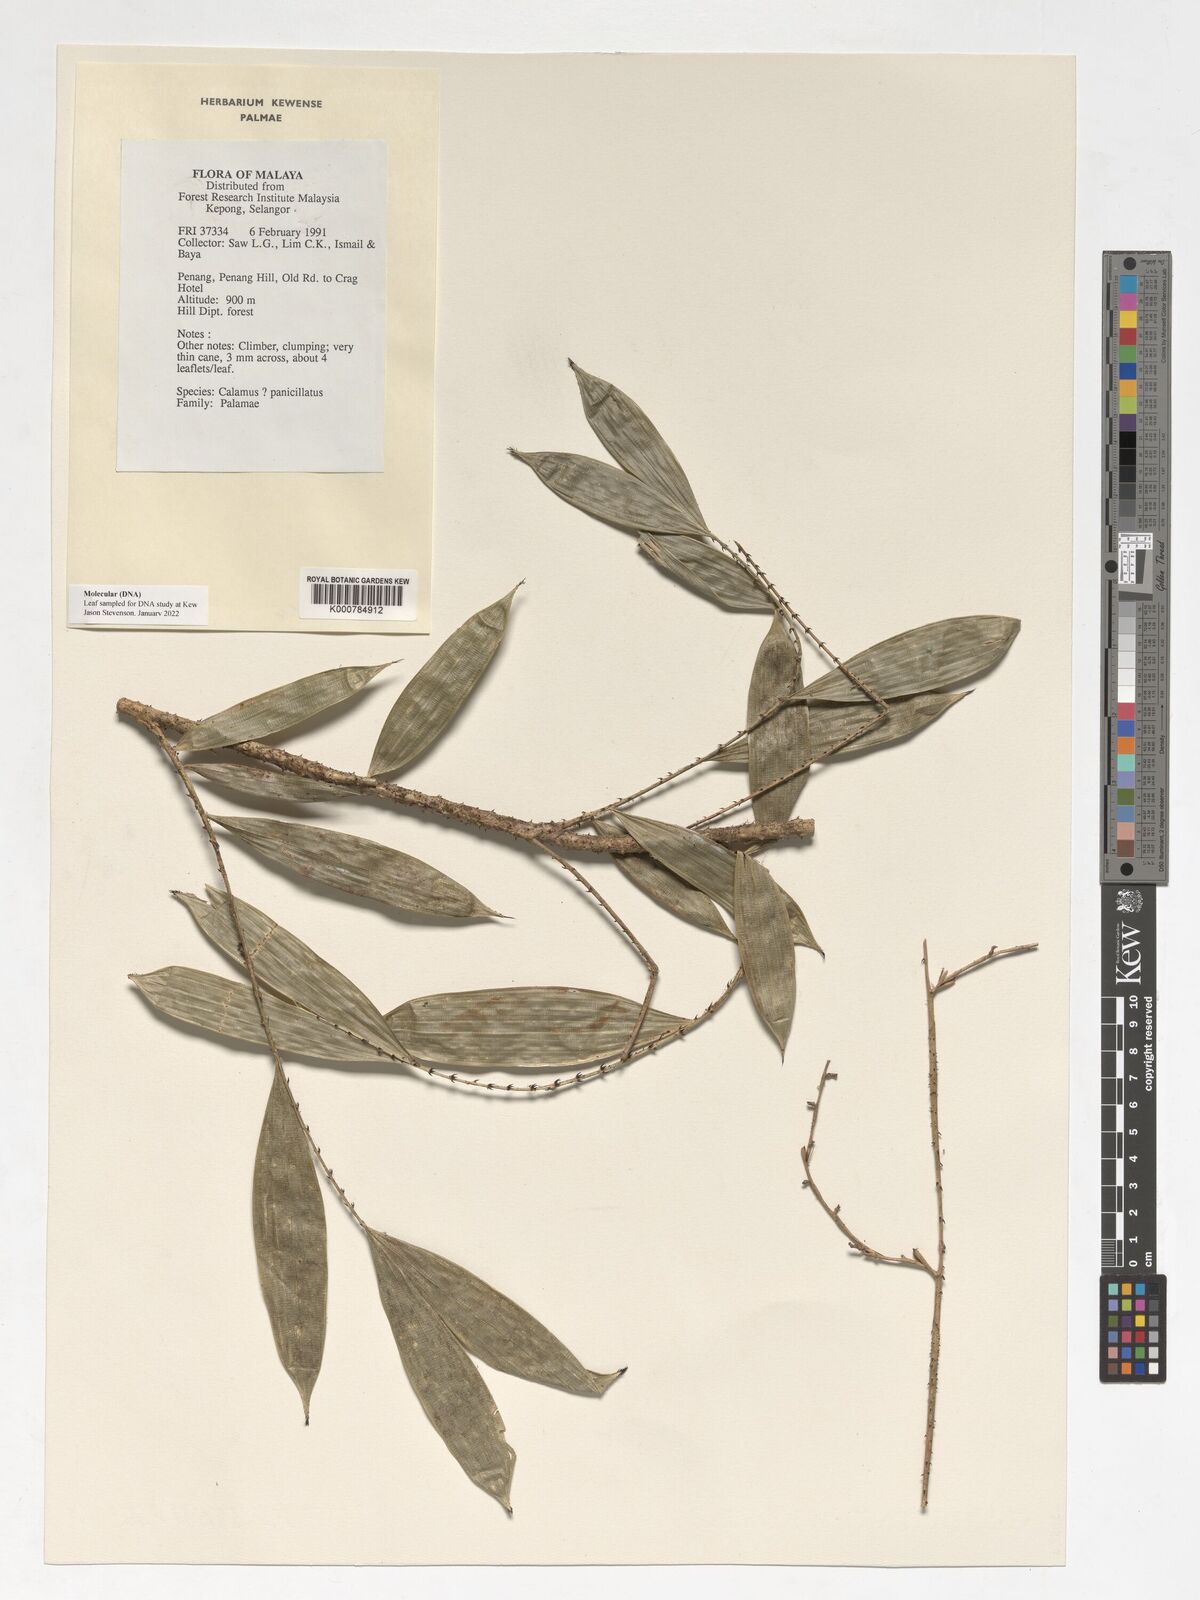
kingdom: Plantae
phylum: Tracheophyta
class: Liliopsida
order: Arecales
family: Arecaceae
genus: Calamus
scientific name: Calamus penicillatus
